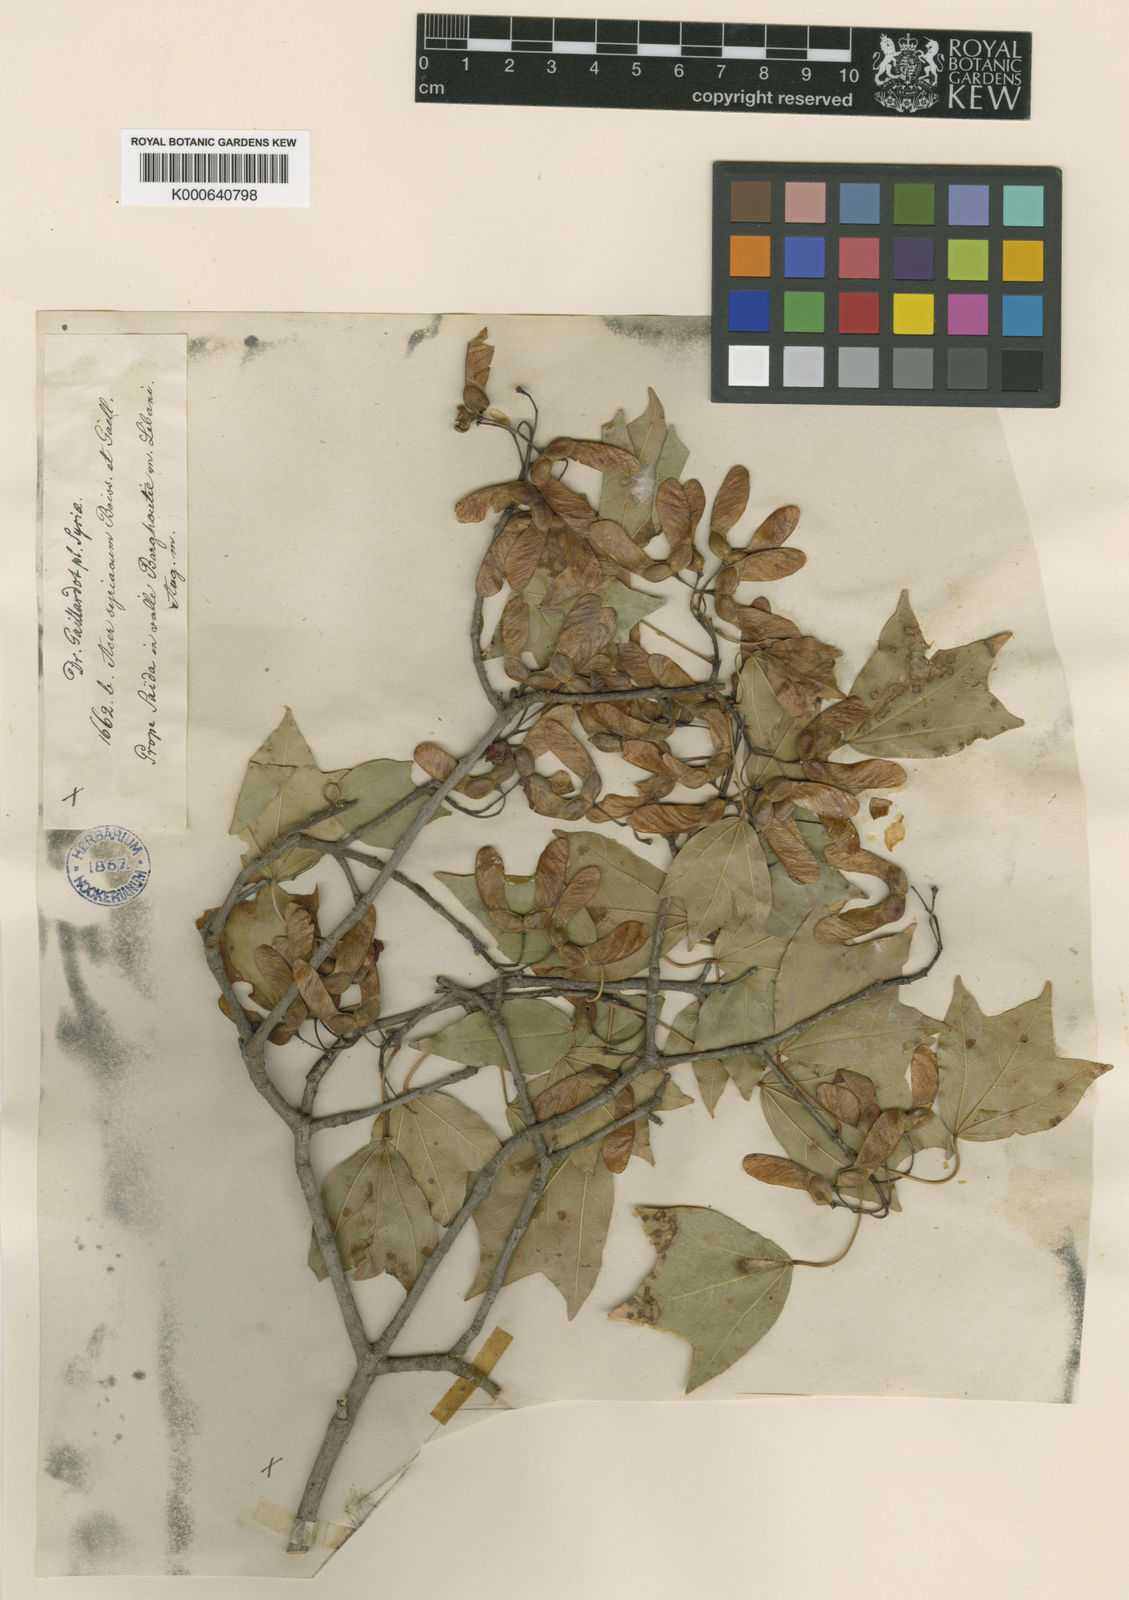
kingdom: Plantae
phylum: Tracheophyta
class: Magnoliopsida
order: Sapindales
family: Sapindaceae
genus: Acer
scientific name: Acer obtusifolium
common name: Cyprus maple
